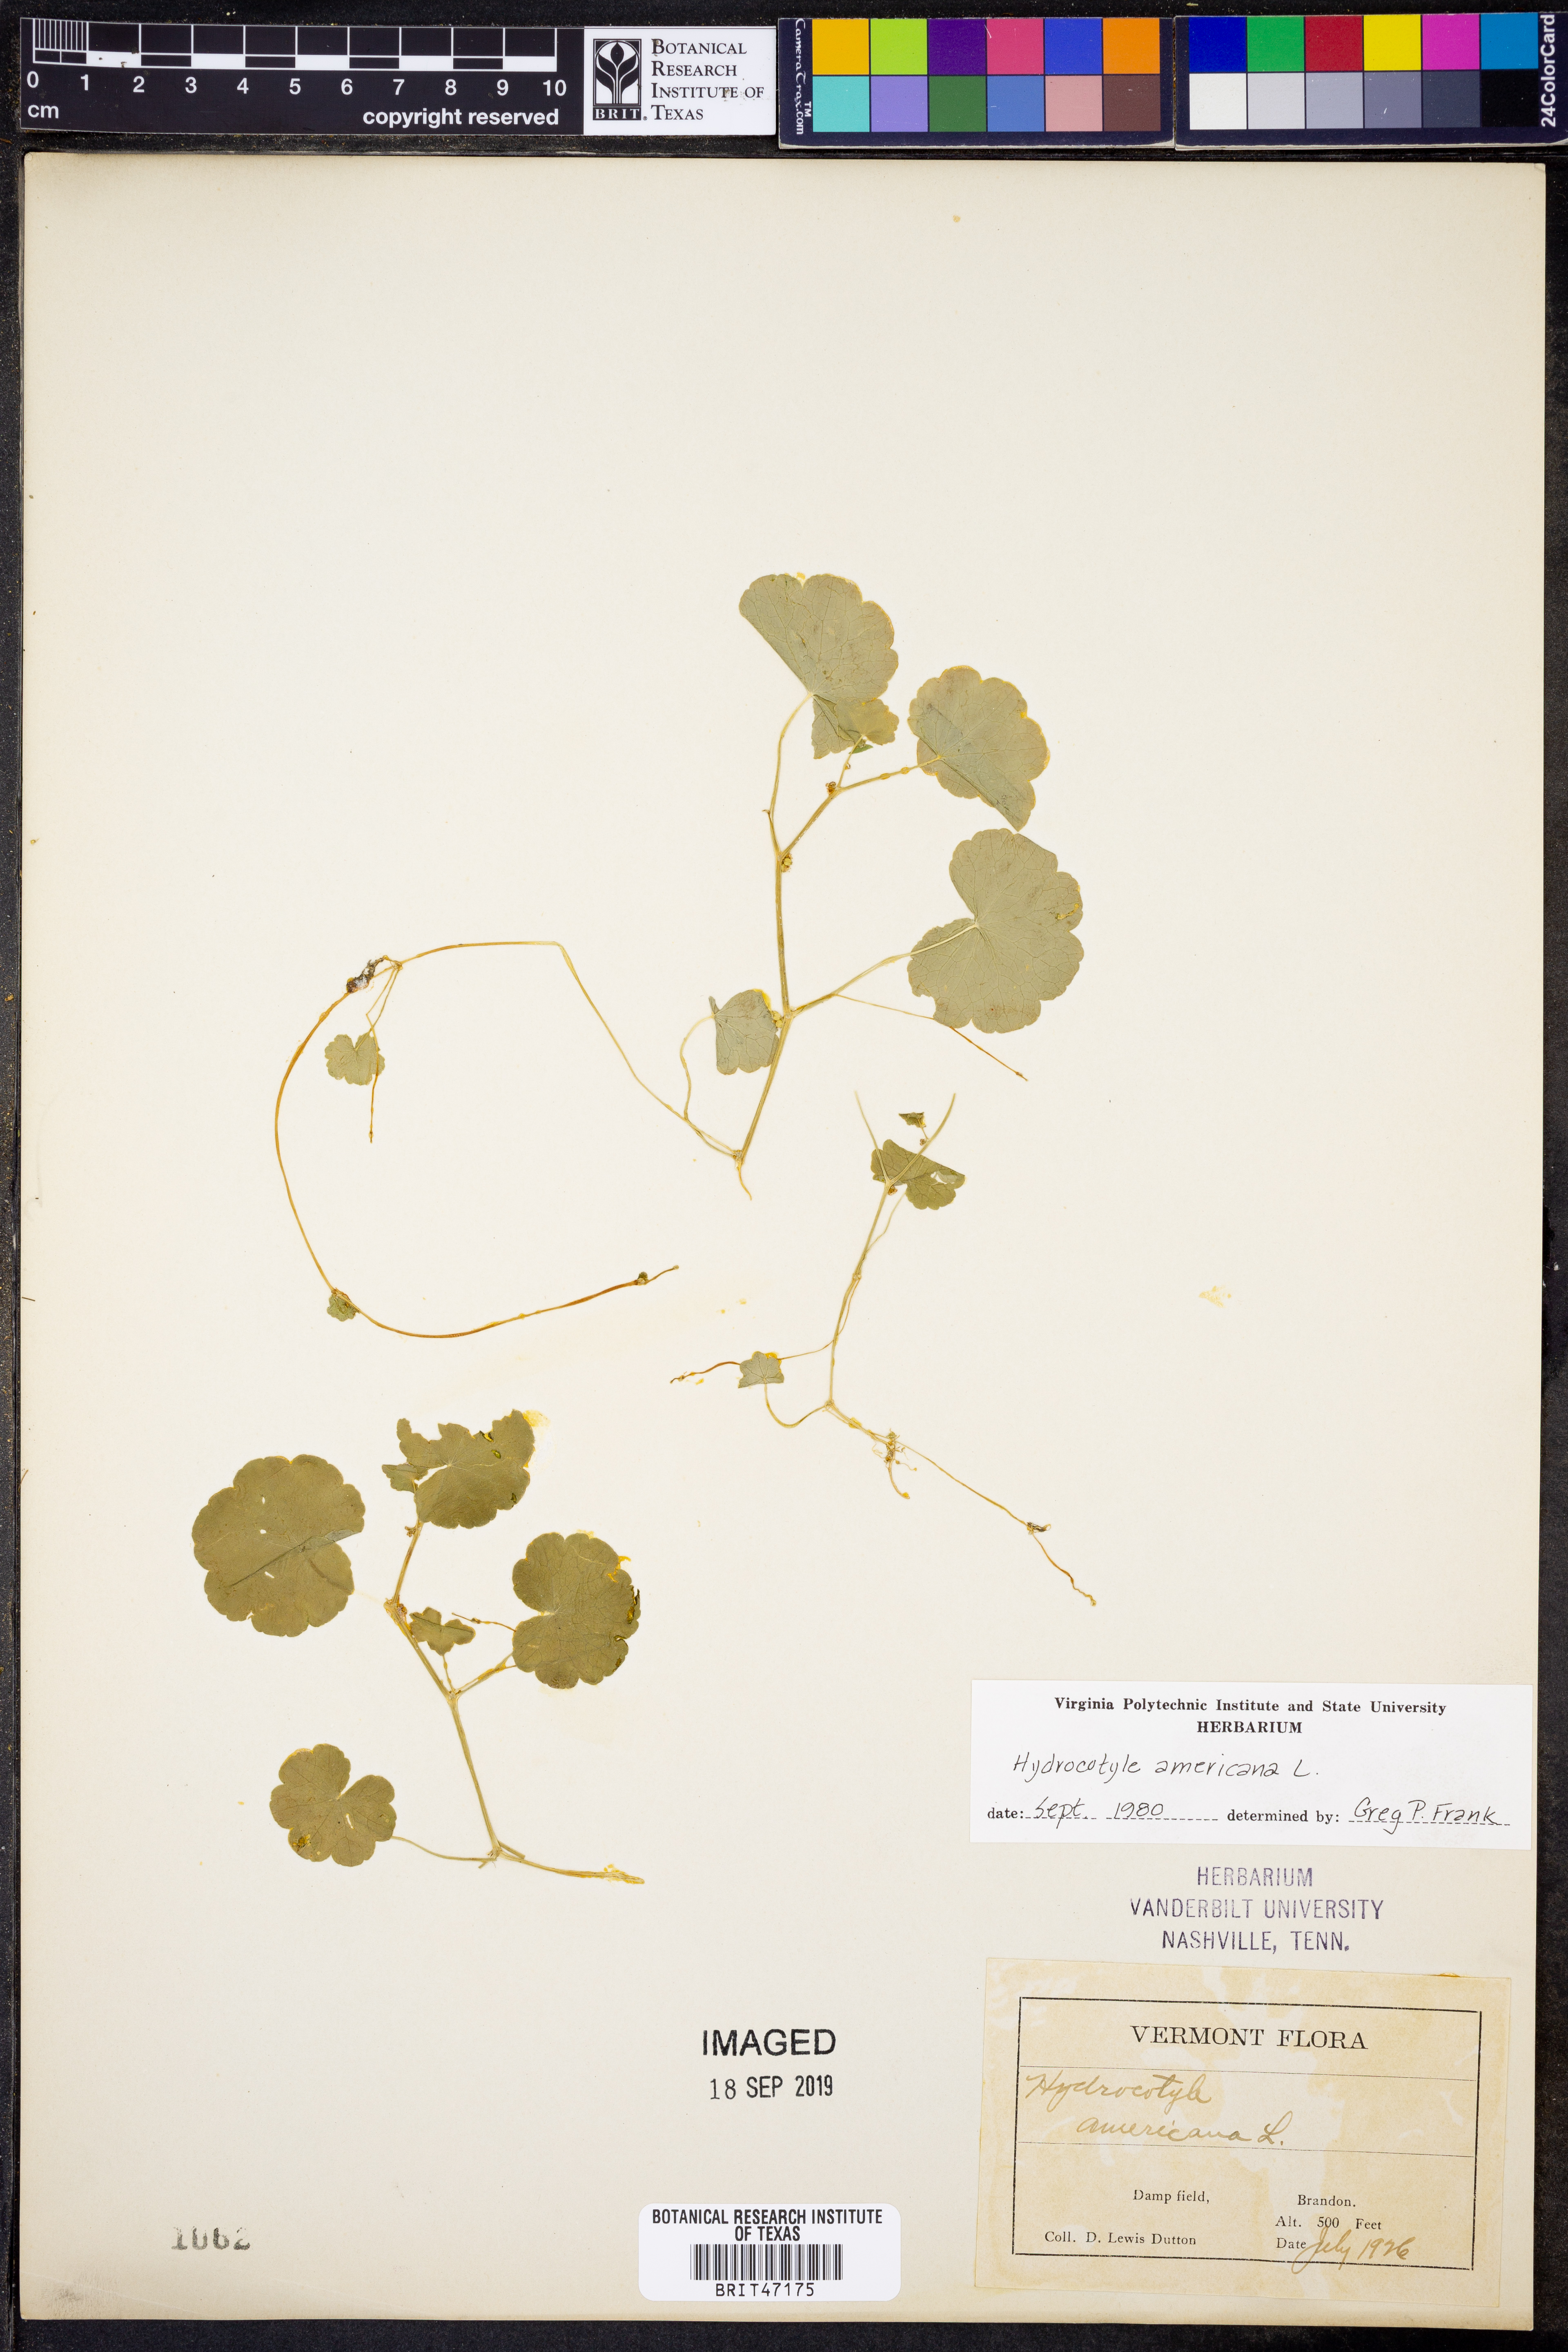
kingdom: Plantae
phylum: Tracheophyta
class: Magnoliopsida
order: Apiales
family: Araliaceae
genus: Hydrocotyle
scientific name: Hydrocotyle americana
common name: American water-pennywort
